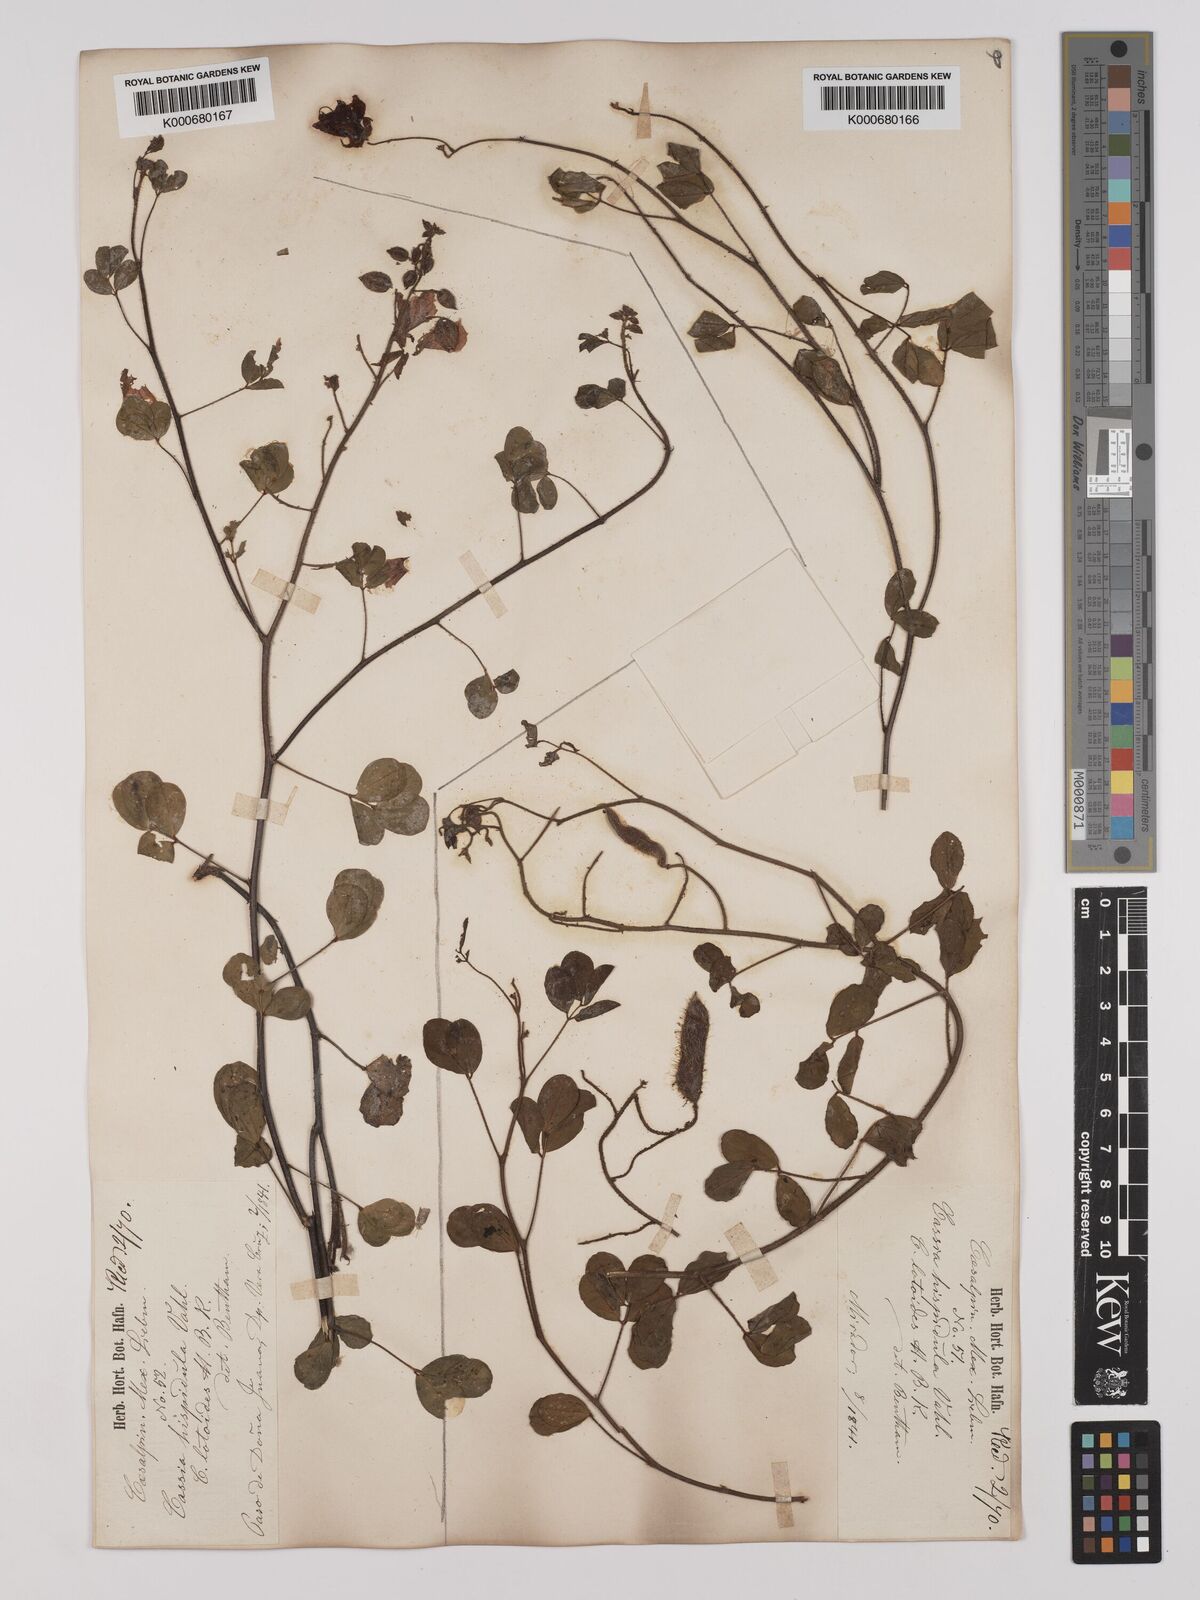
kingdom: Plantae
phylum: Tracheophyta
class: Magnoliopsida
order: Fabales
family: Fabaceae
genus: Chamaecrista
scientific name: Chamaecrista hispidula
